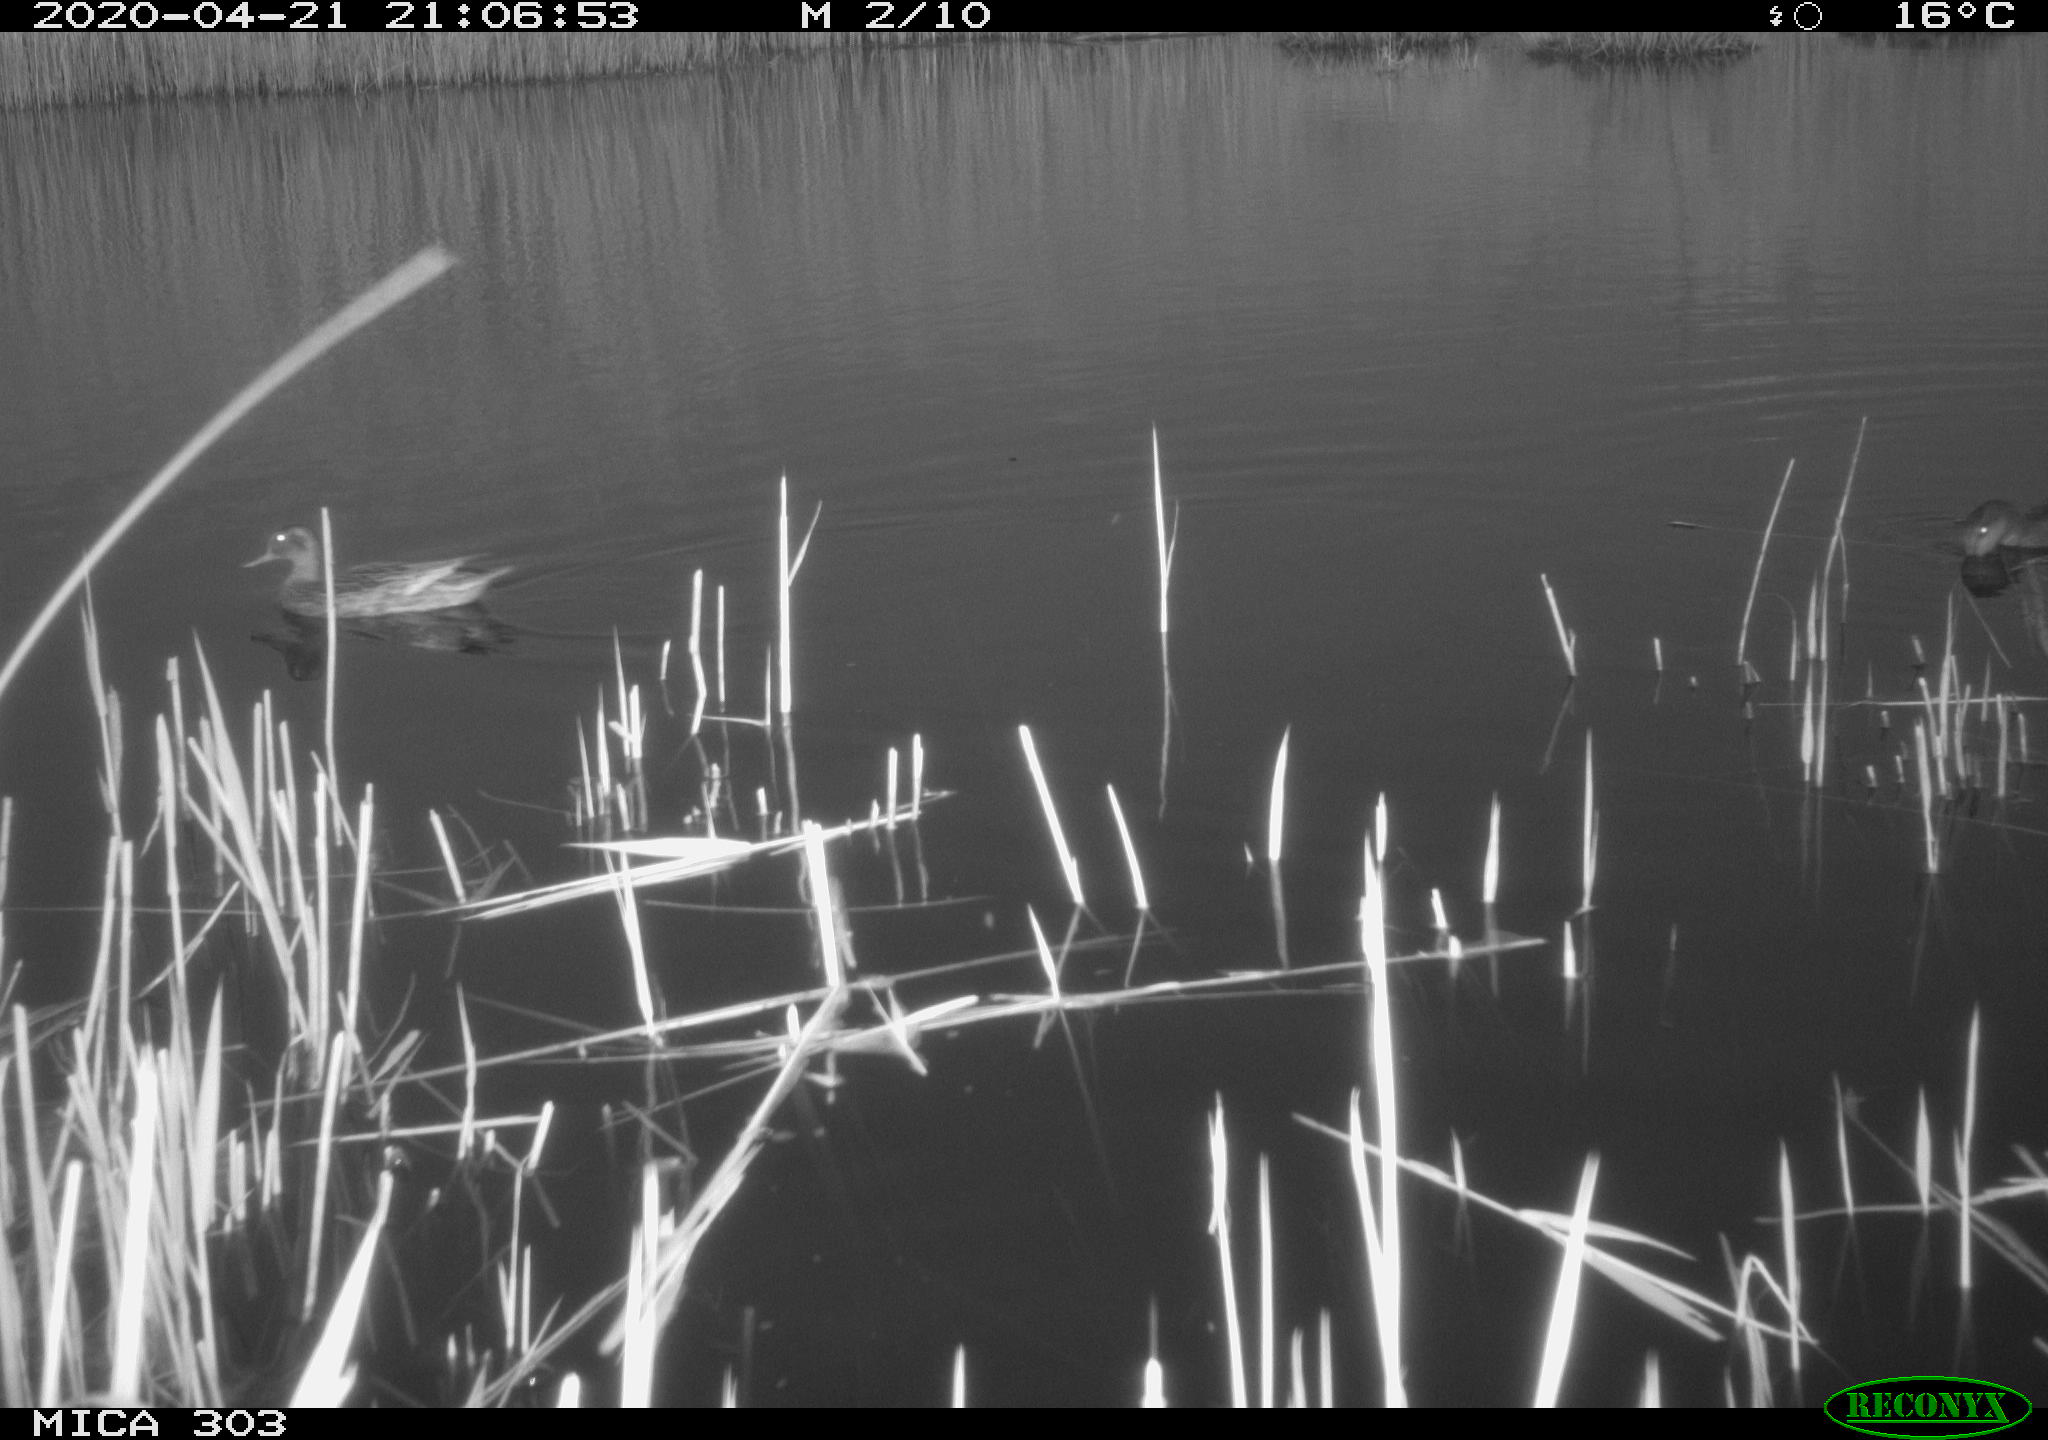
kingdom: Animalia
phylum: Chordata
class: Aves
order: Anseriformes
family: Anatidae
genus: Mareca
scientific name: Mareca strepera
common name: Gadwall
